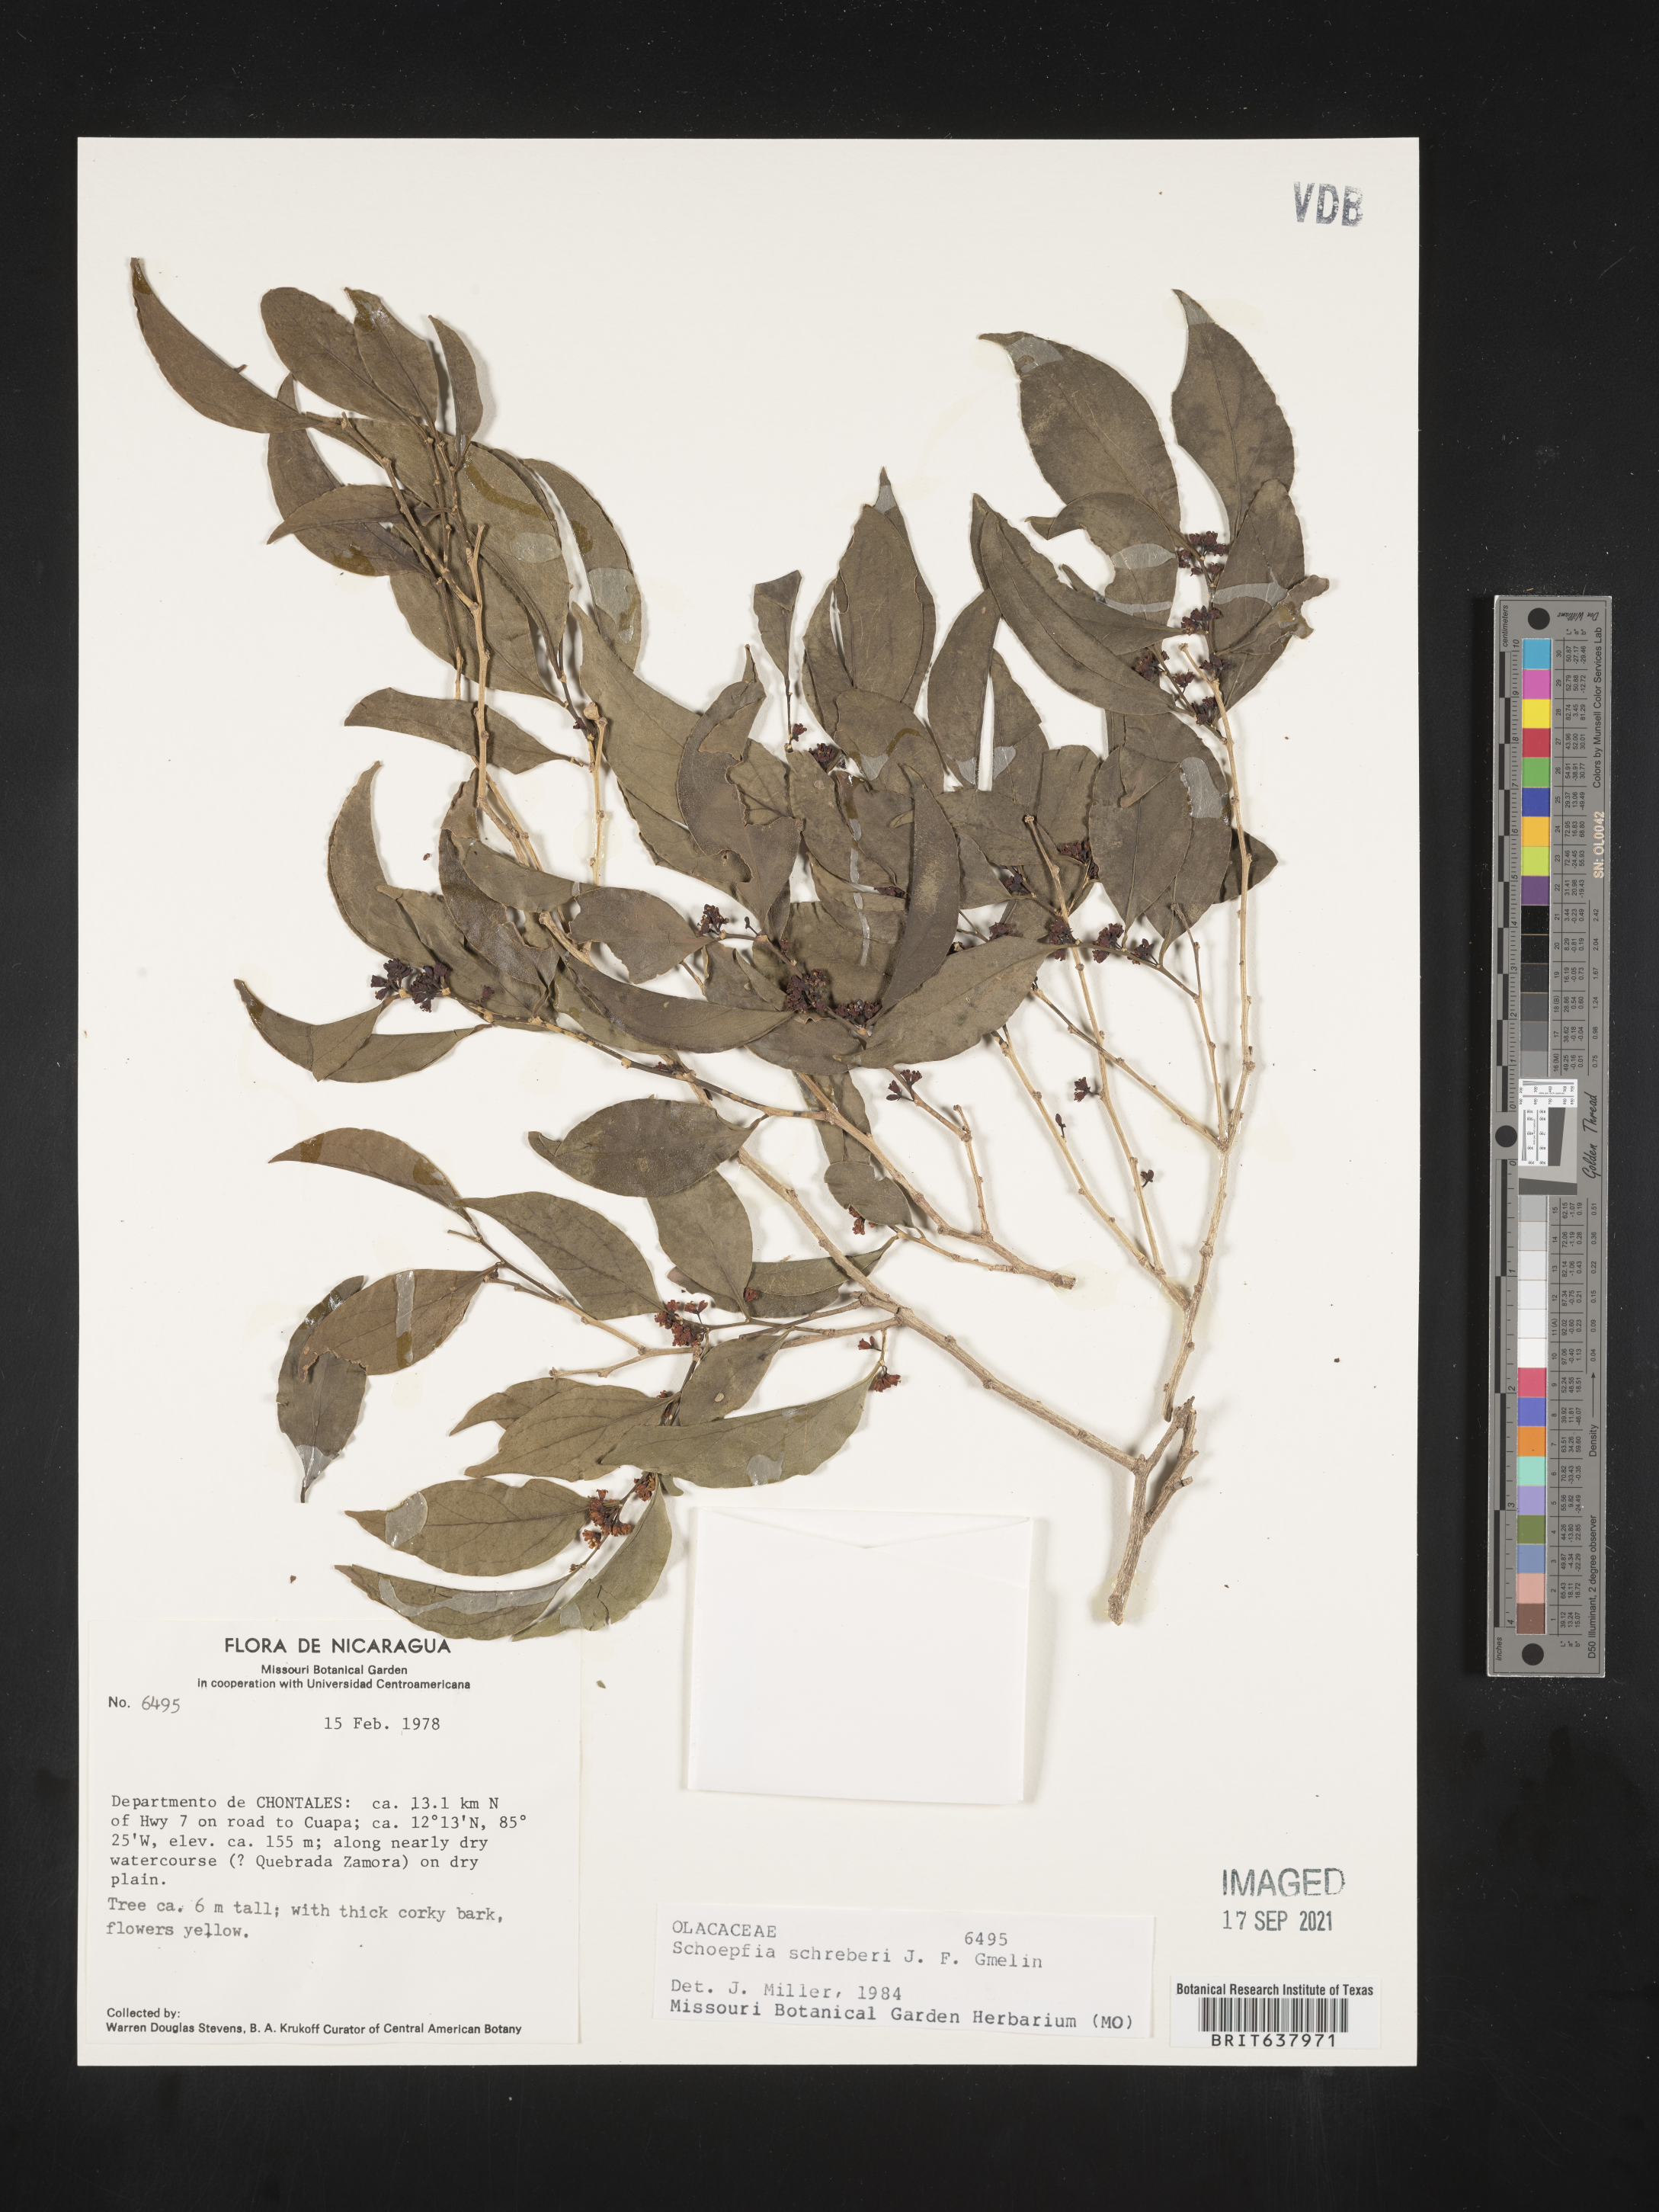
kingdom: Plantae
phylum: Tracheophyta
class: Magnoliopsida
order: Santalales
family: Schoepfiaceae
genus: Schoepfia
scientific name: Schoepfia
